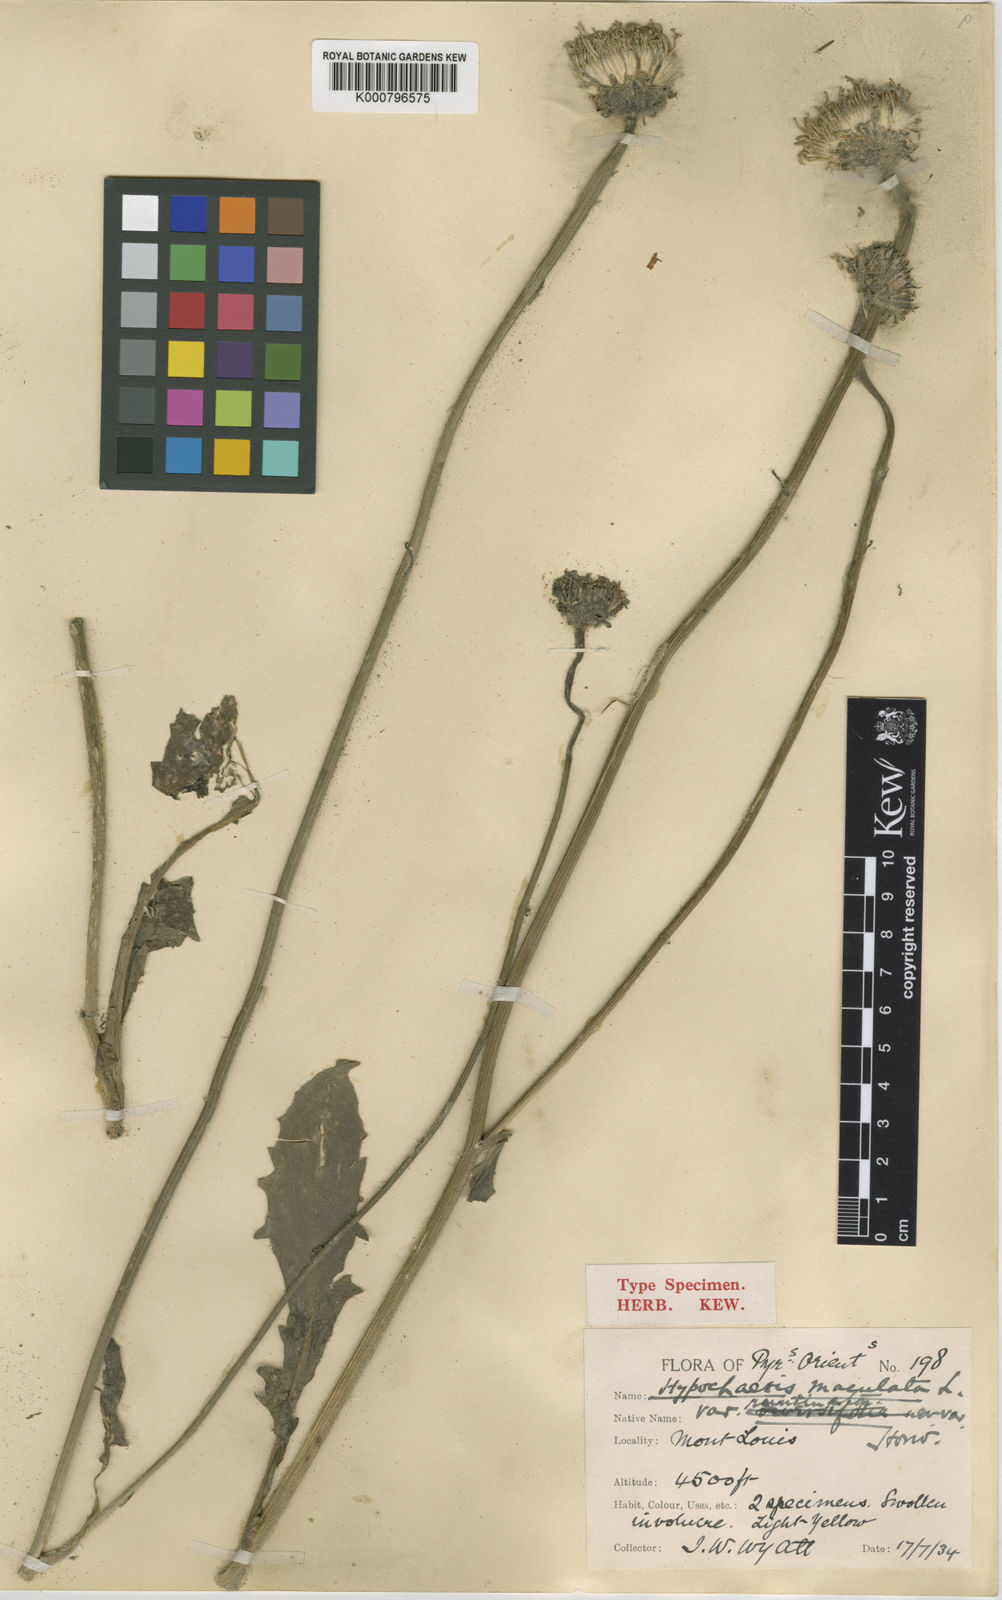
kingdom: Plantae
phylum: Tracheophyta
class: Magnoliopsida
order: Asterales
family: Asteraceae
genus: Trommsdorffia
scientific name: Trommsdorffia maculata
